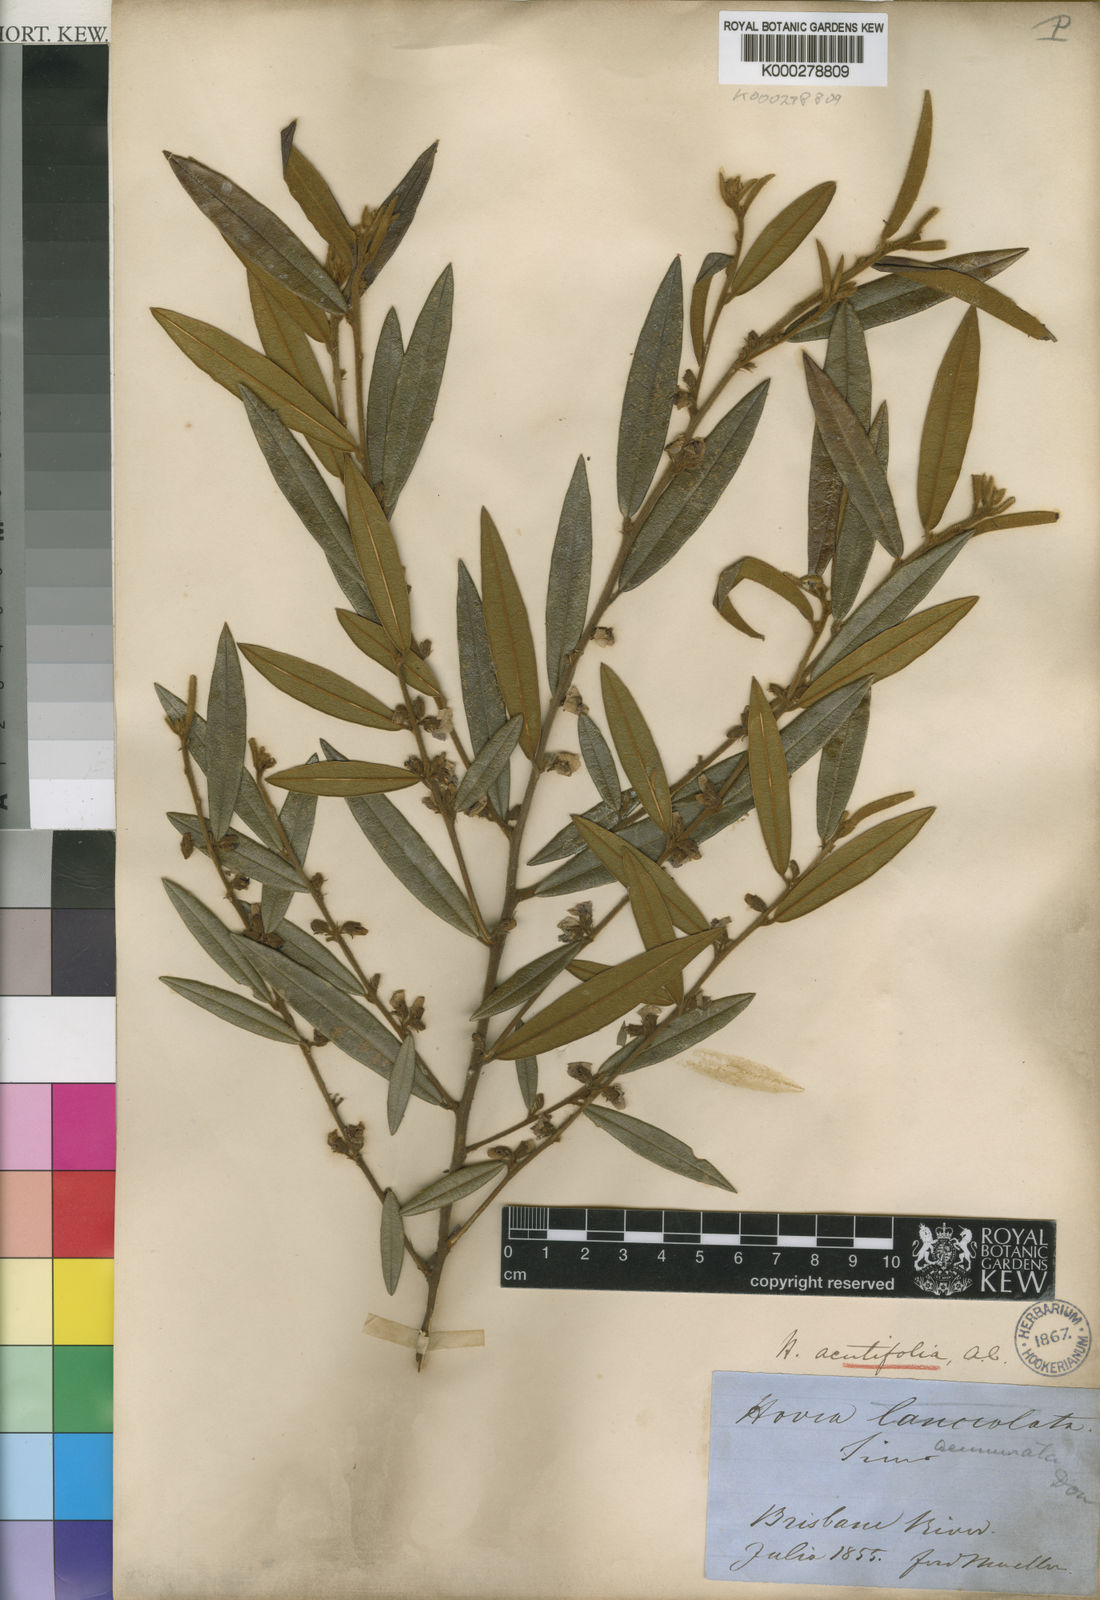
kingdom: Plantae
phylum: Tracheophyta
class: Magnoliopsida
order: Fabales
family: Fabaceae
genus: Hovea
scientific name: Hovea acutifolia
